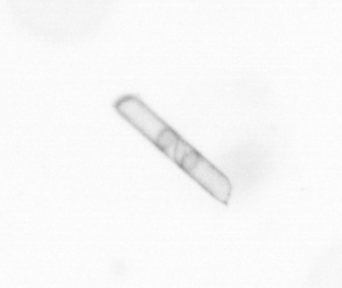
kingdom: Chromista
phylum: Ochrophyta
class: Bacillariophyceae
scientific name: Bacillariophyceae
